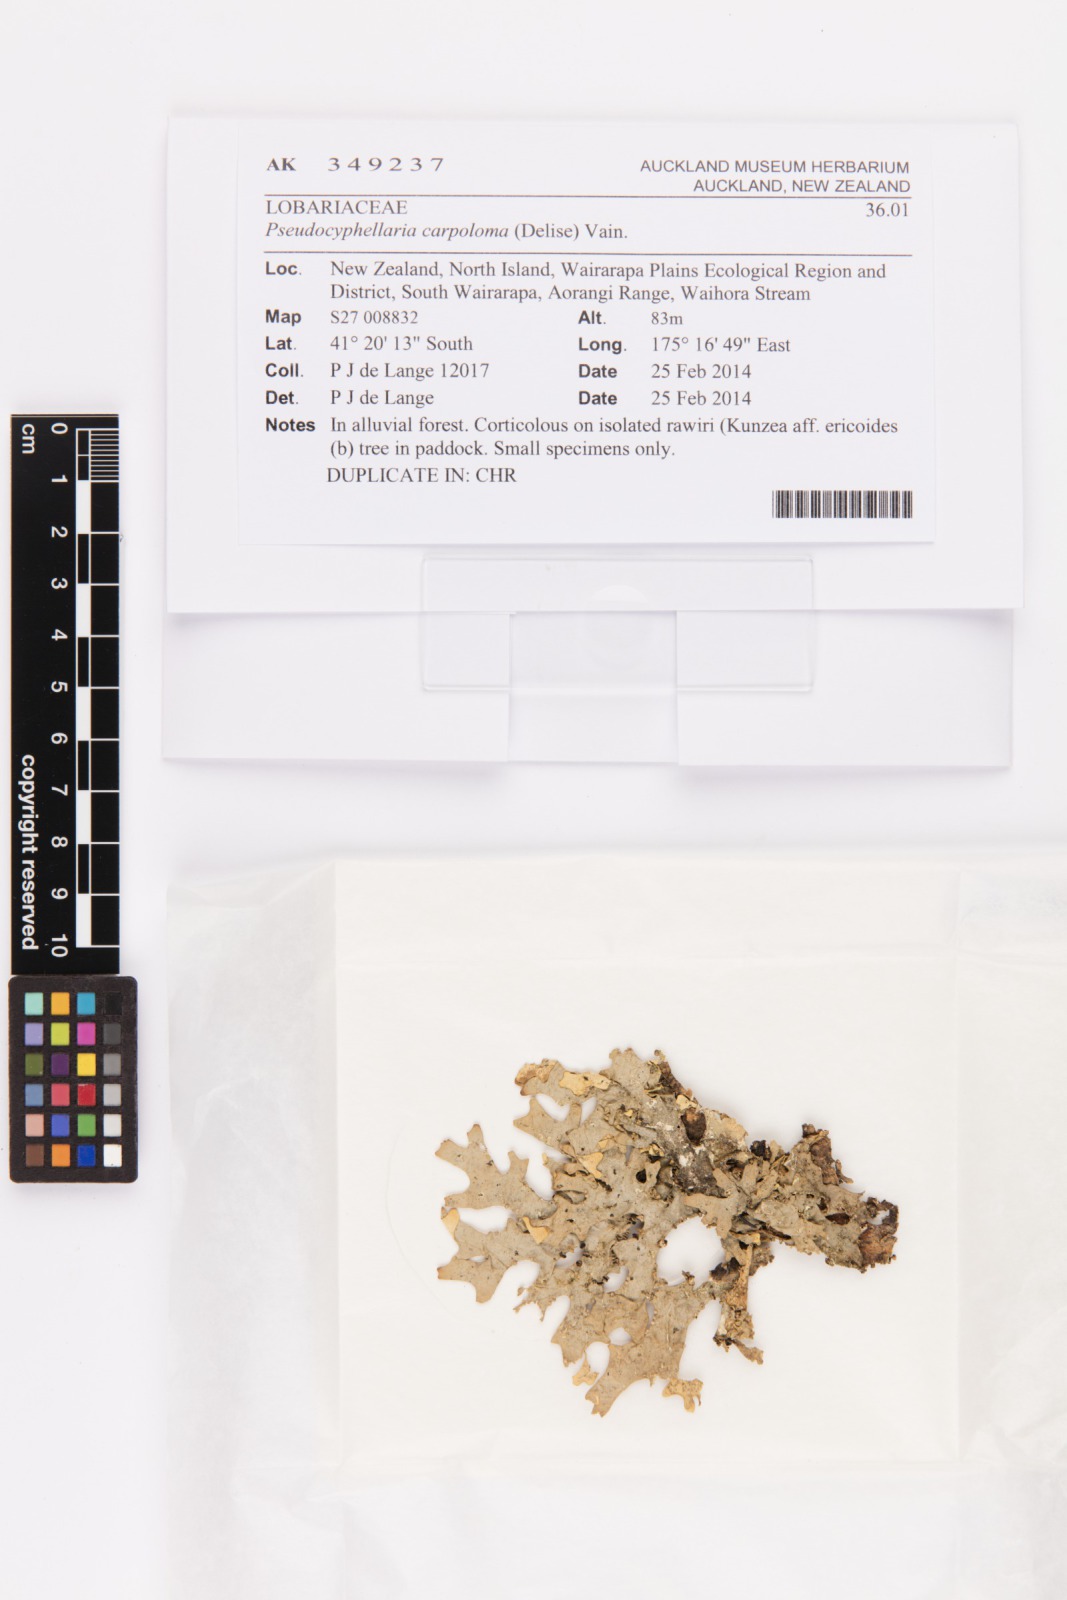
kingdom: Fungi
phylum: Ascomycota
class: Lecanoromycetes
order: Peltigerales
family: Lobariaceae
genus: Pseudocyphellaria
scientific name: Pseudocyphellaria carpoloma
